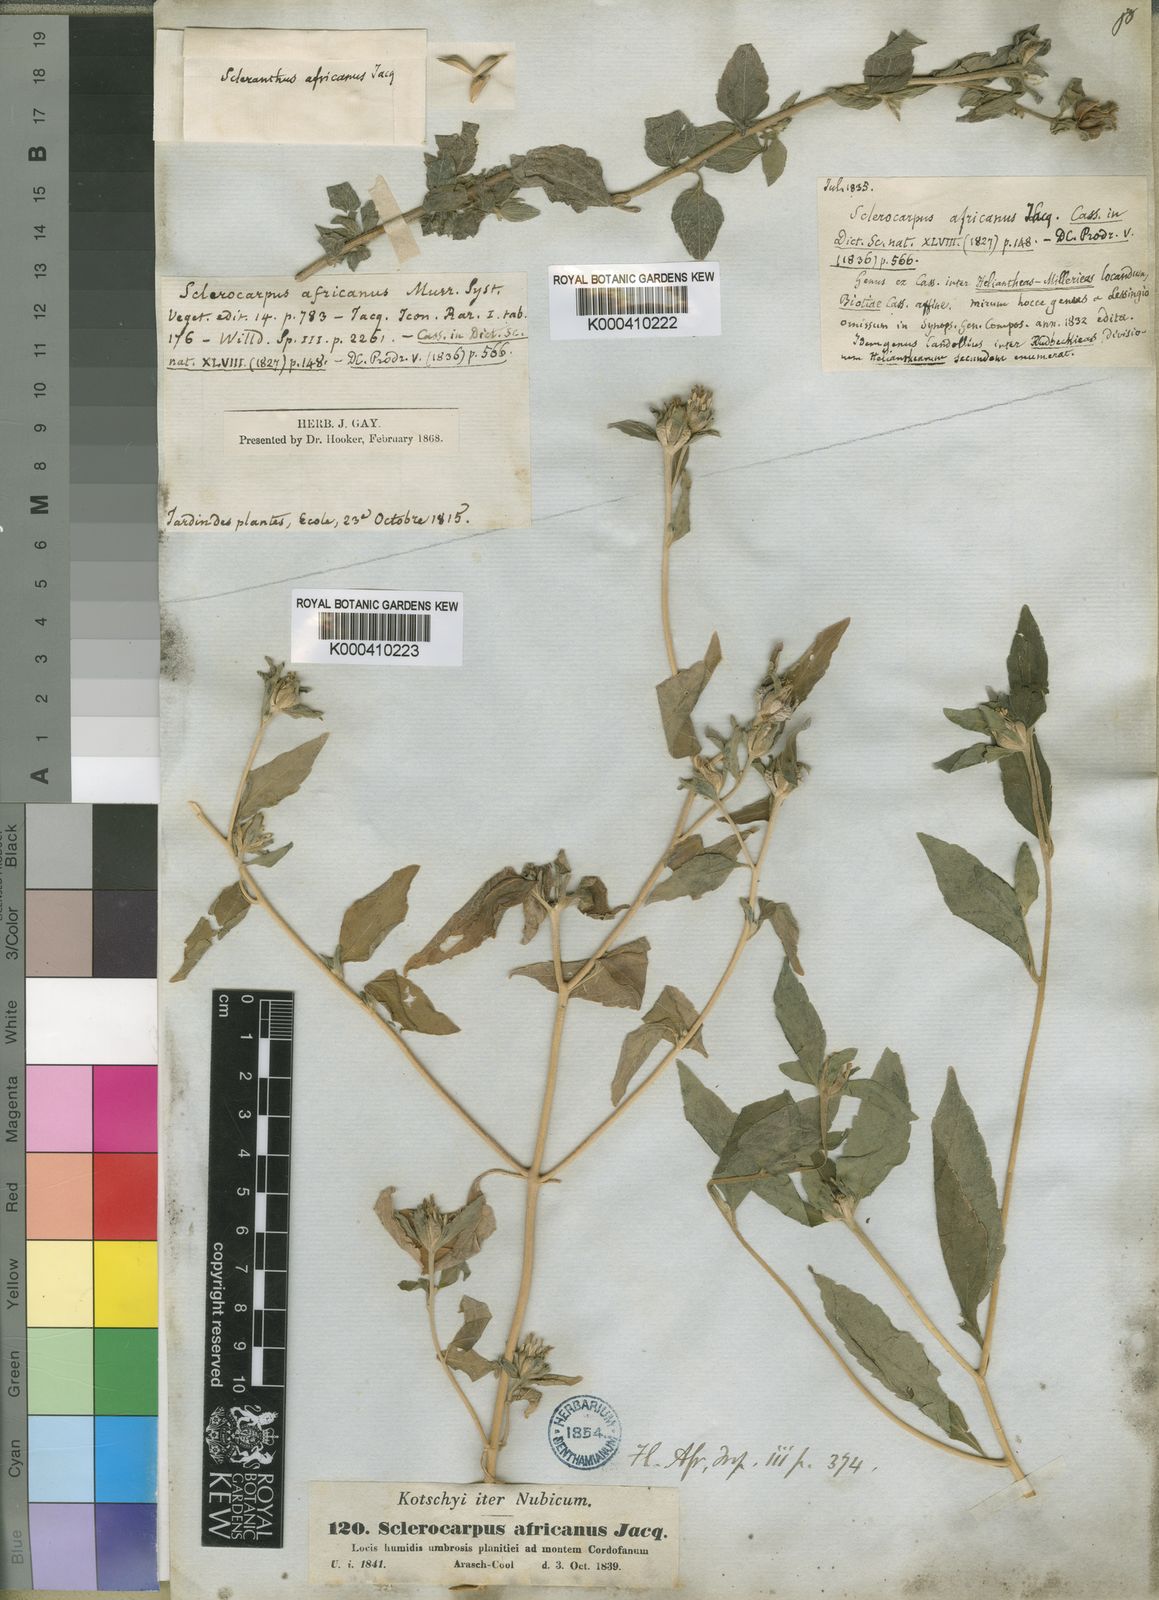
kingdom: Plantae
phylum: Tracheophyta
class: Magnoliopsida
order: Asterales
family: Asteraceae
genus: Sclerocarpus
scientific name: Sclerocarpus
